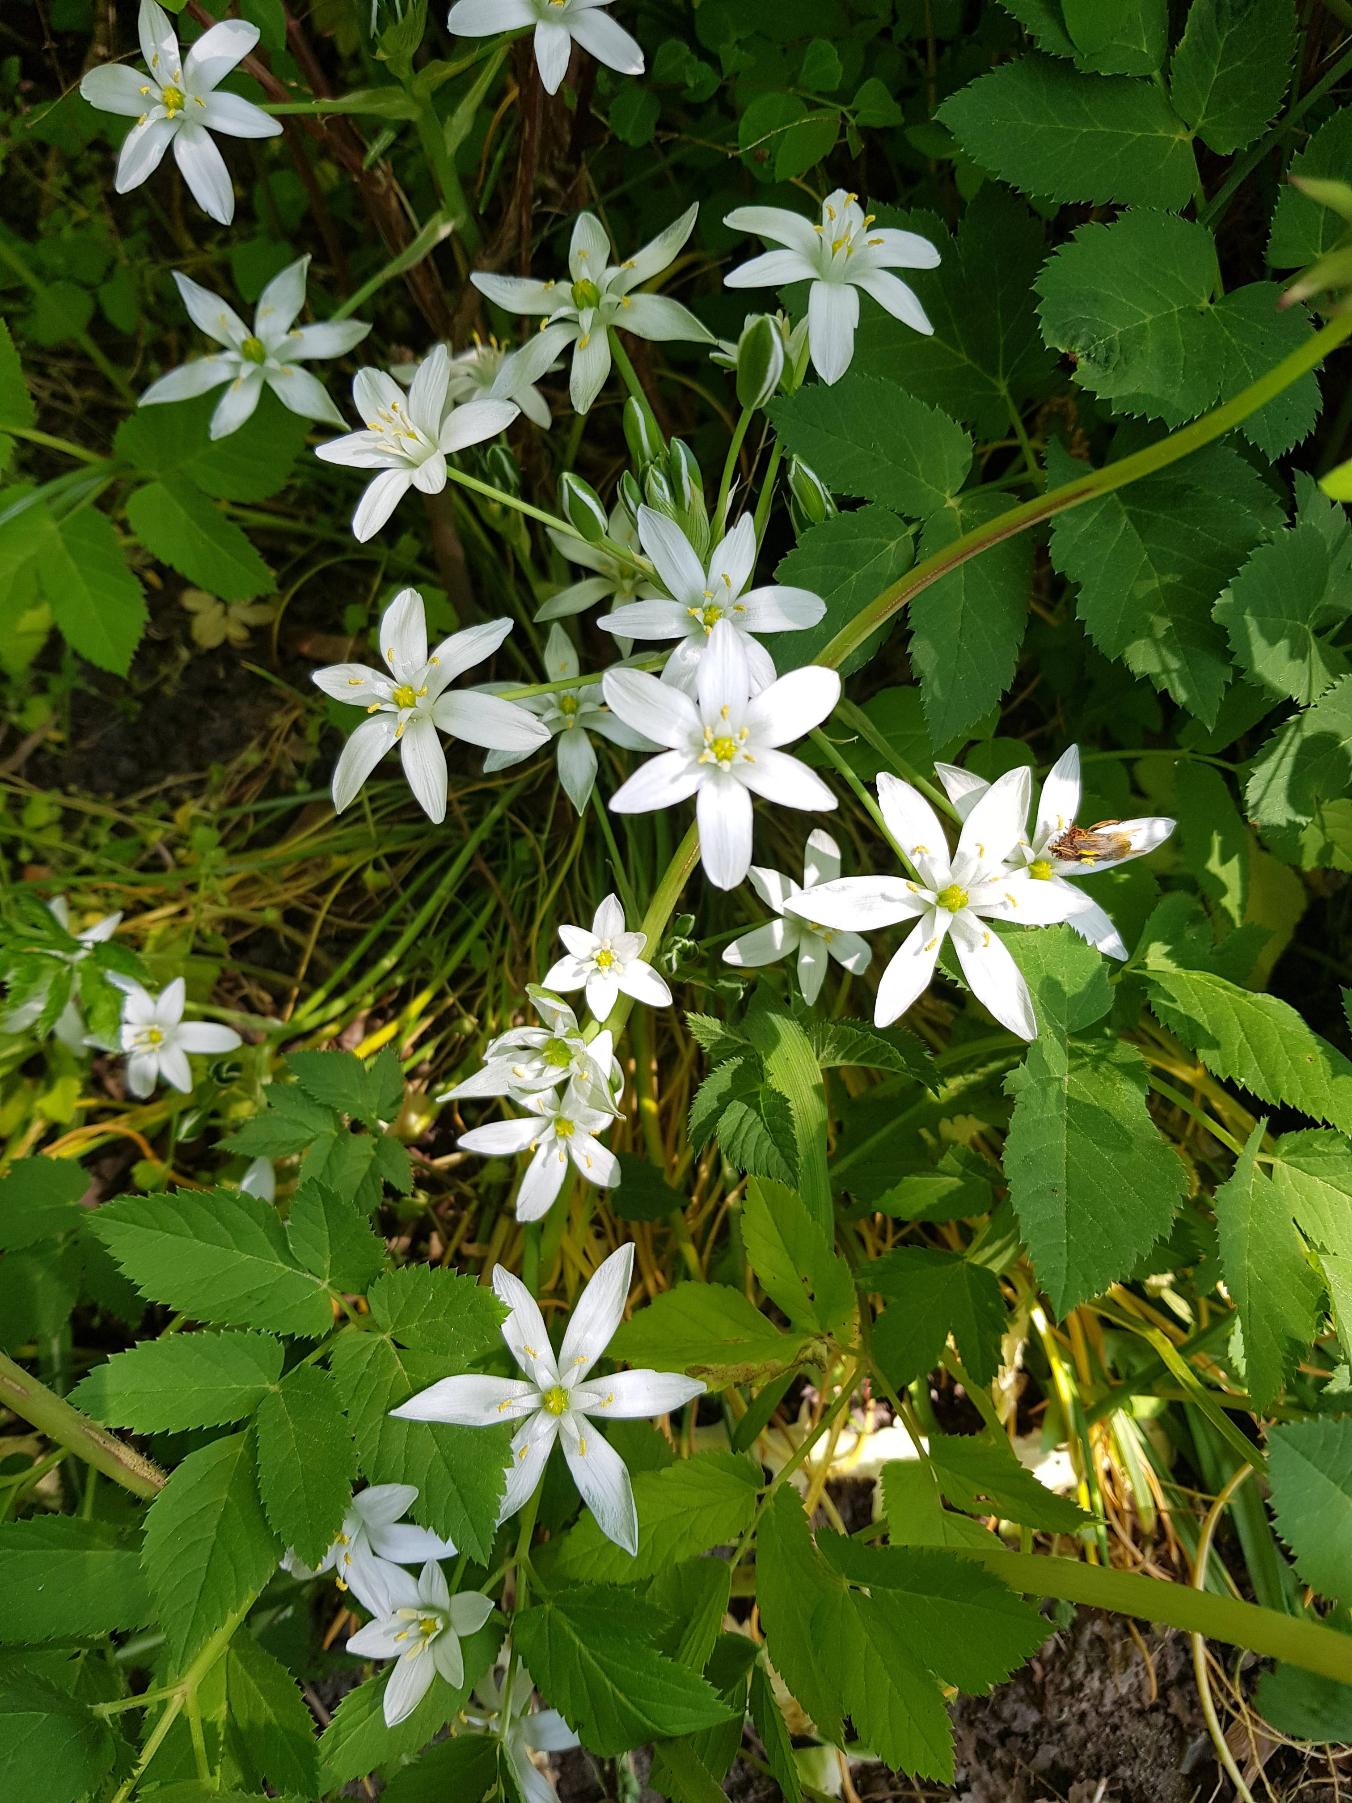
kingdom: Plantae
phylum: Tracheophyta
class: Liliopsida
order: Asparagales
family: Asparagaceae
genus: Ornithogalum
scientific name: Ornithogalum umbellatum
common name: Kost-fuglemælk
